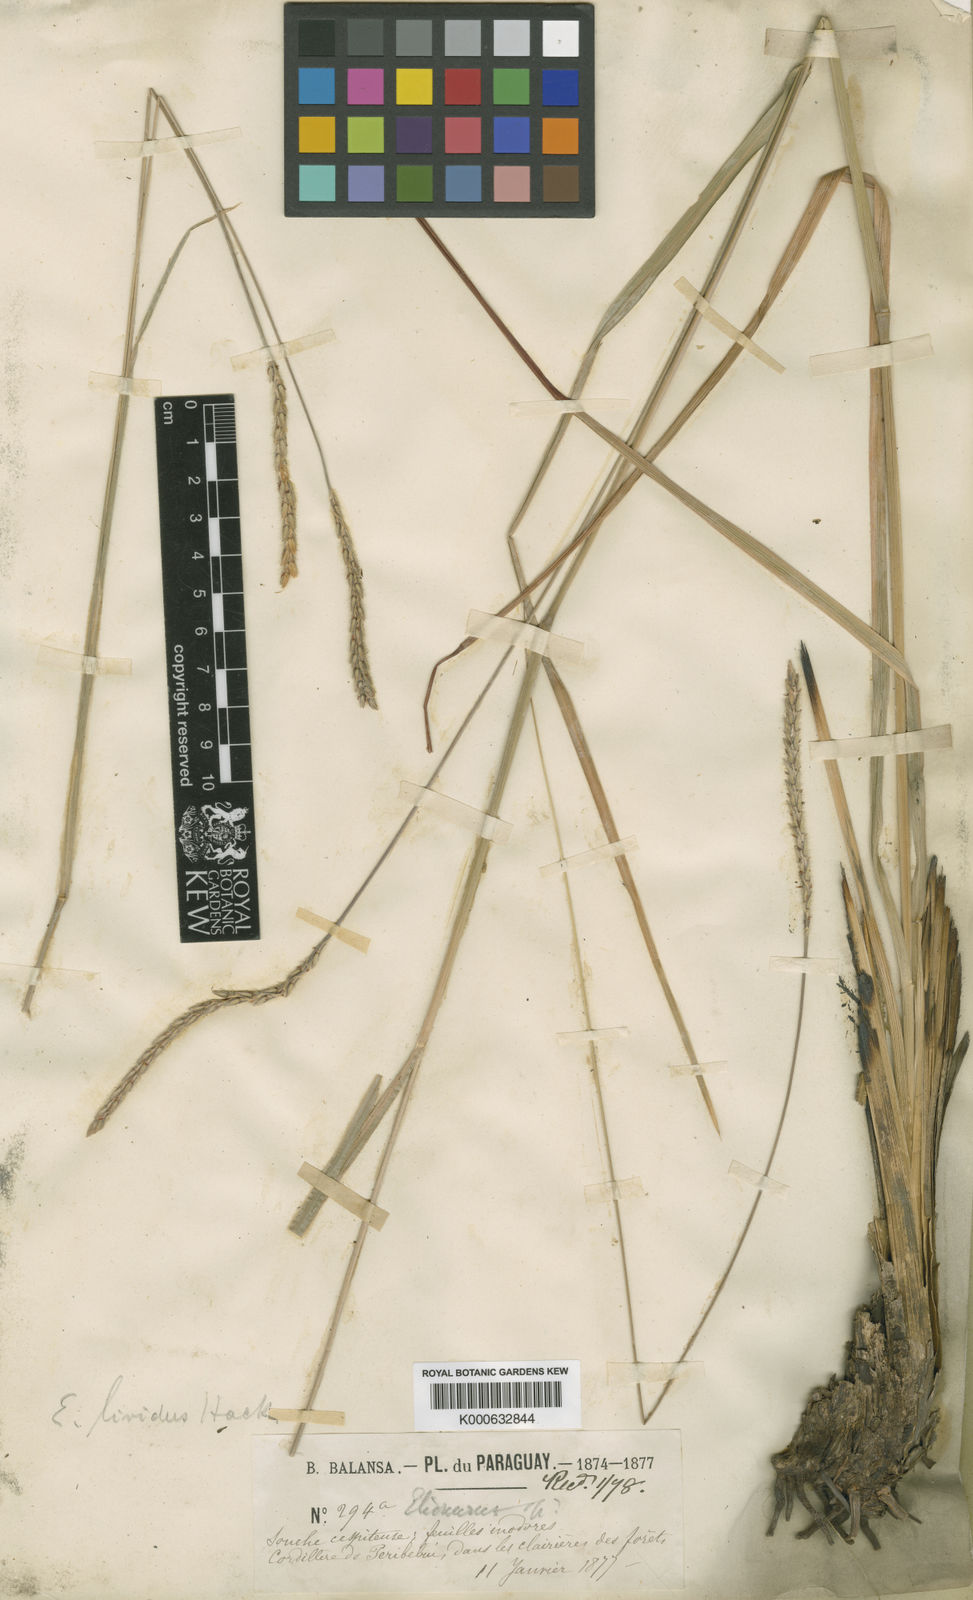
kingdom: Plantae
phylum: Tracheophyta
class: Liliopsida
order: Poales
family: Poaceae
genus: Elionurus
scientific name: Elionurus lividus
